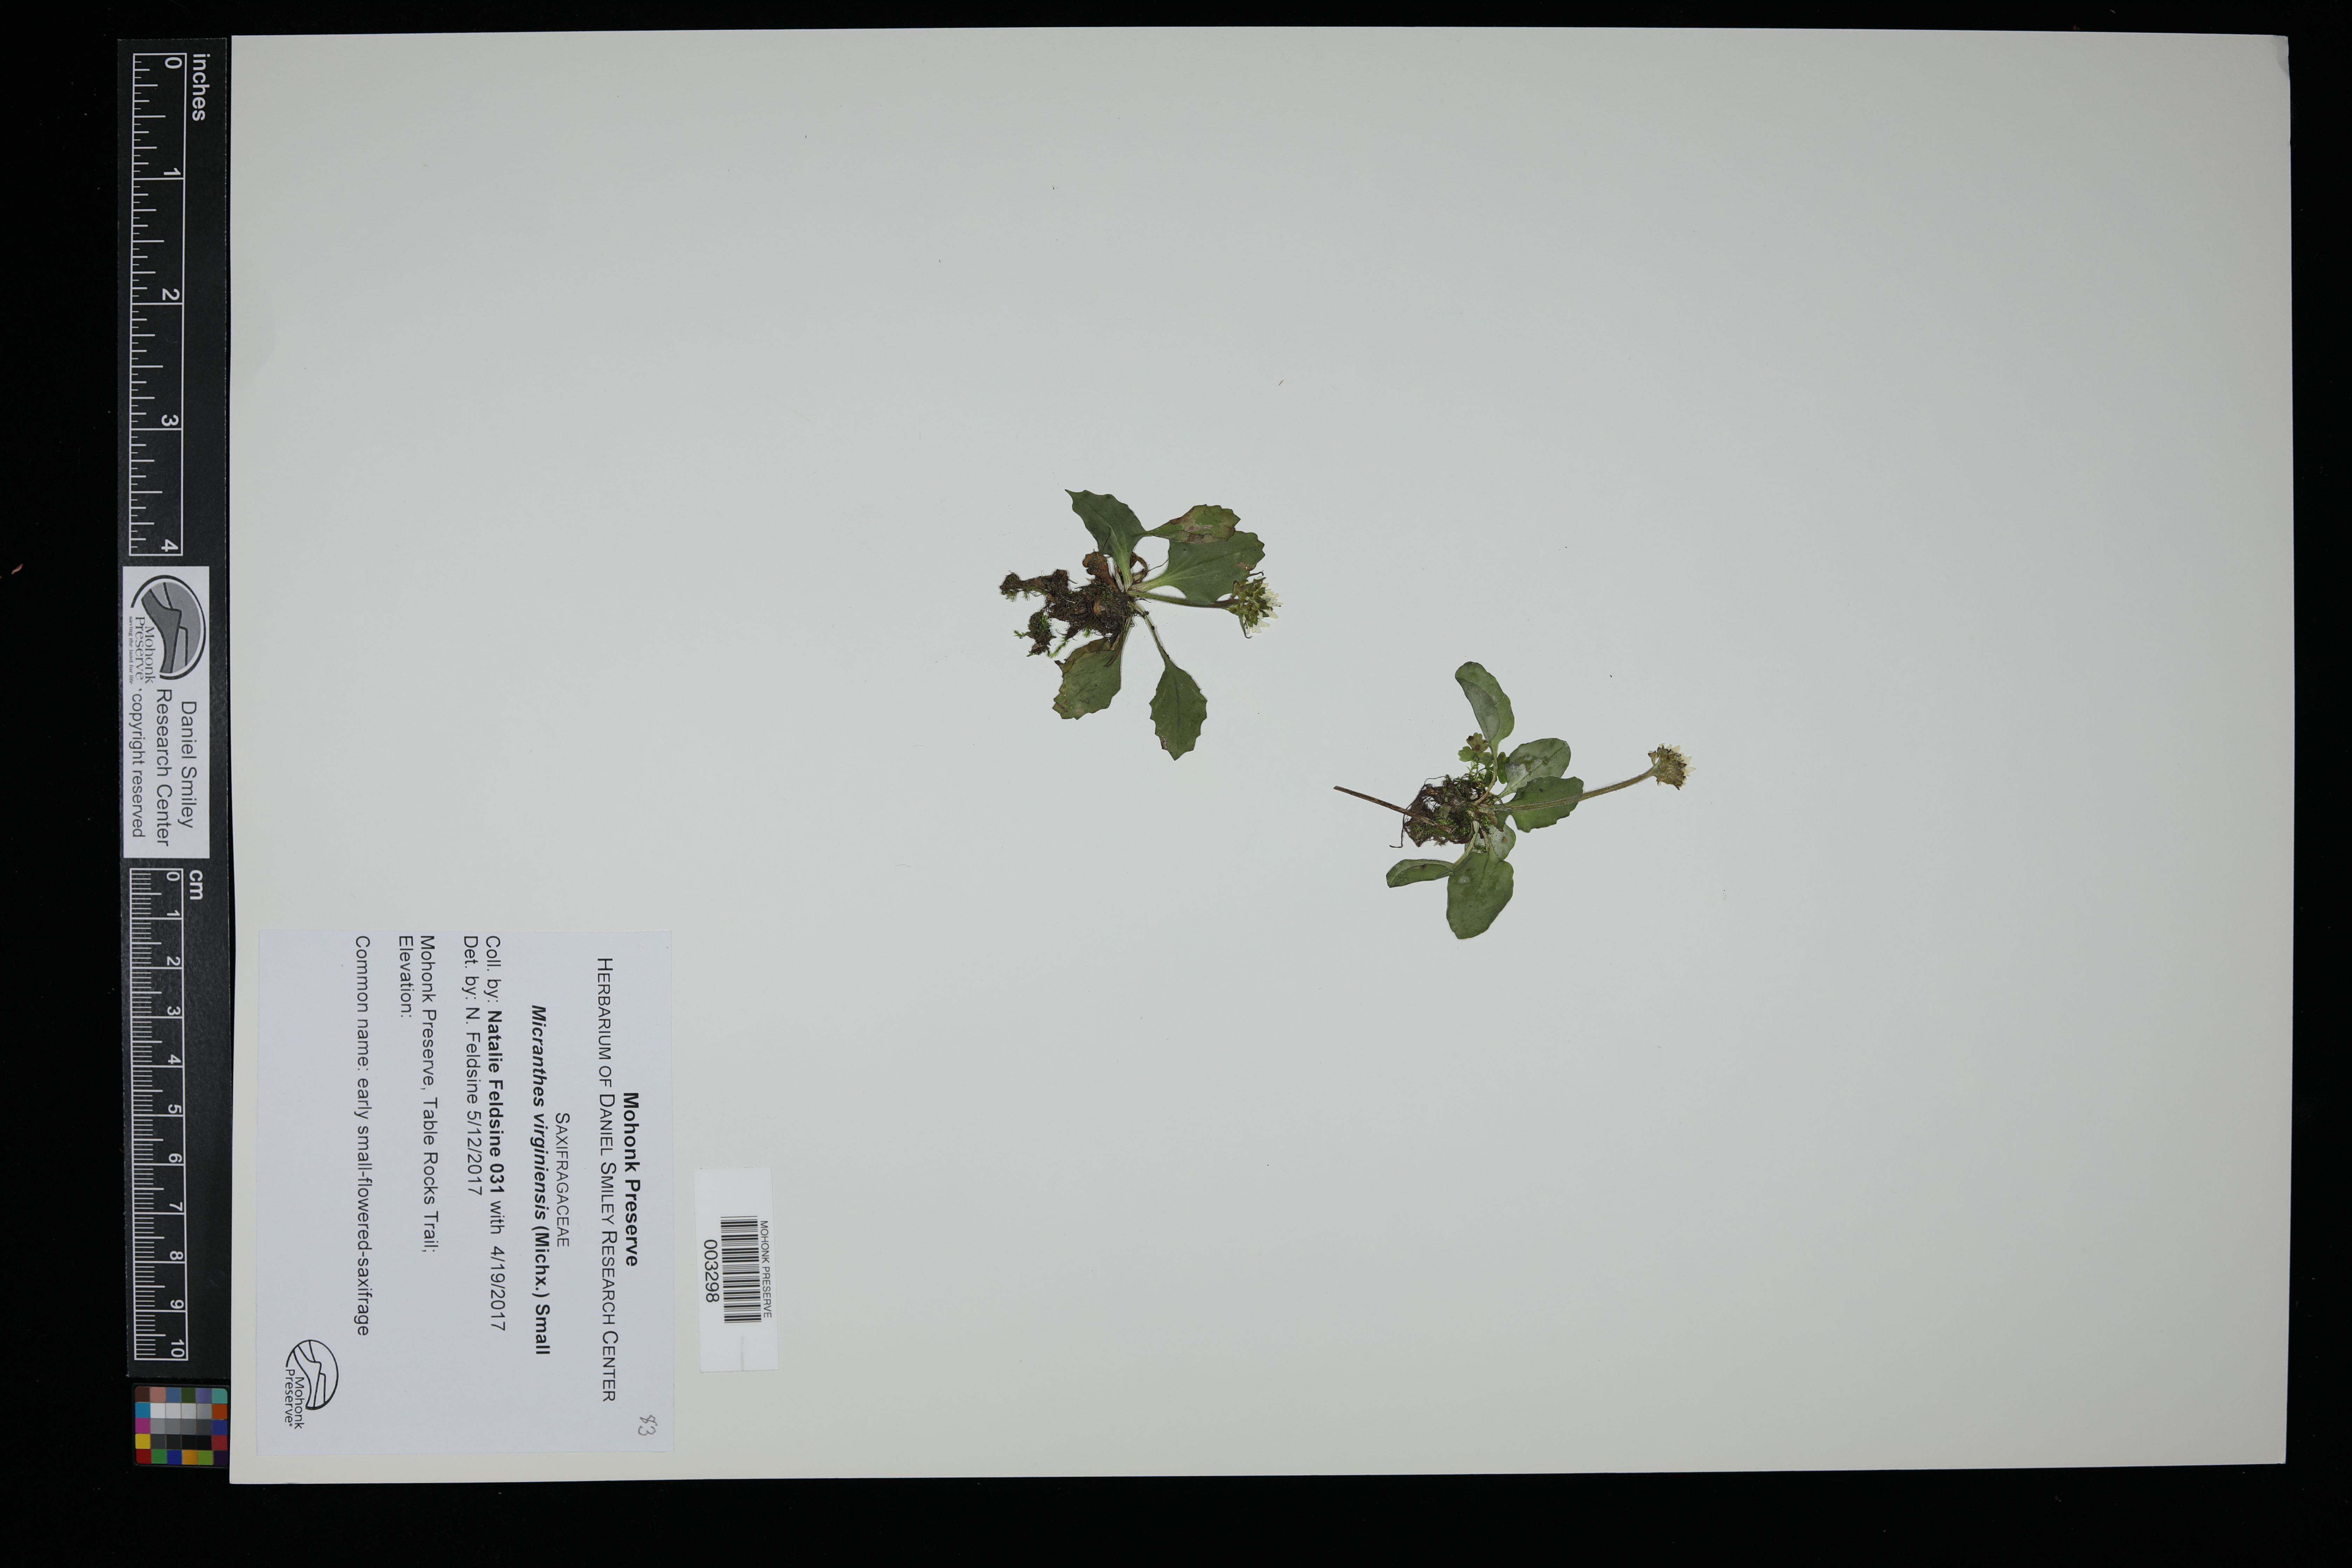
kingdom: Plantae
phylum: Tracheophyta
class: Magnoliopsida
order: Saxifragales
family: Saxifragaceae
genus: Micranthes
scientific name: Micranthes virginiensis
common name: Early saxifrage
